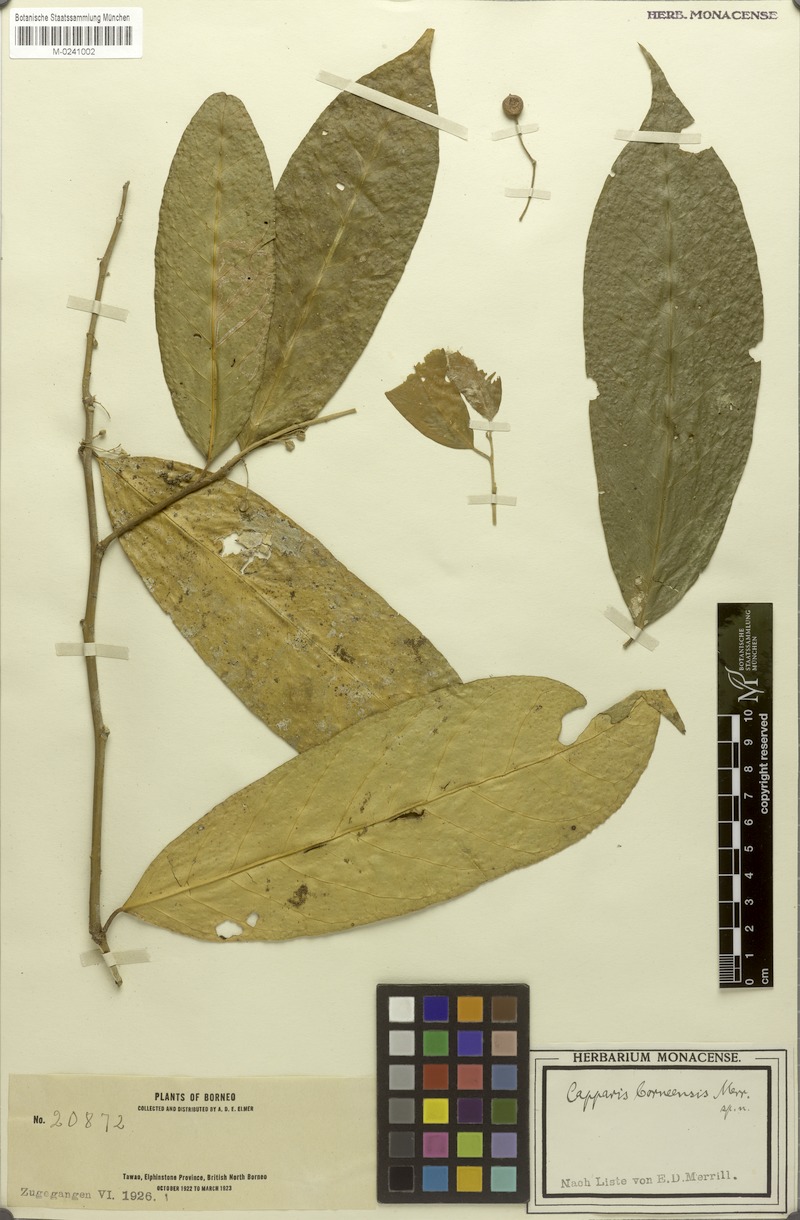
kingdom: Plantae
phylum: Tracheophyta
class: Magnoliopsida
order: Brassicales
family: Capparaceae
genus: Capparis
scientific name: Capparis pubiflora
